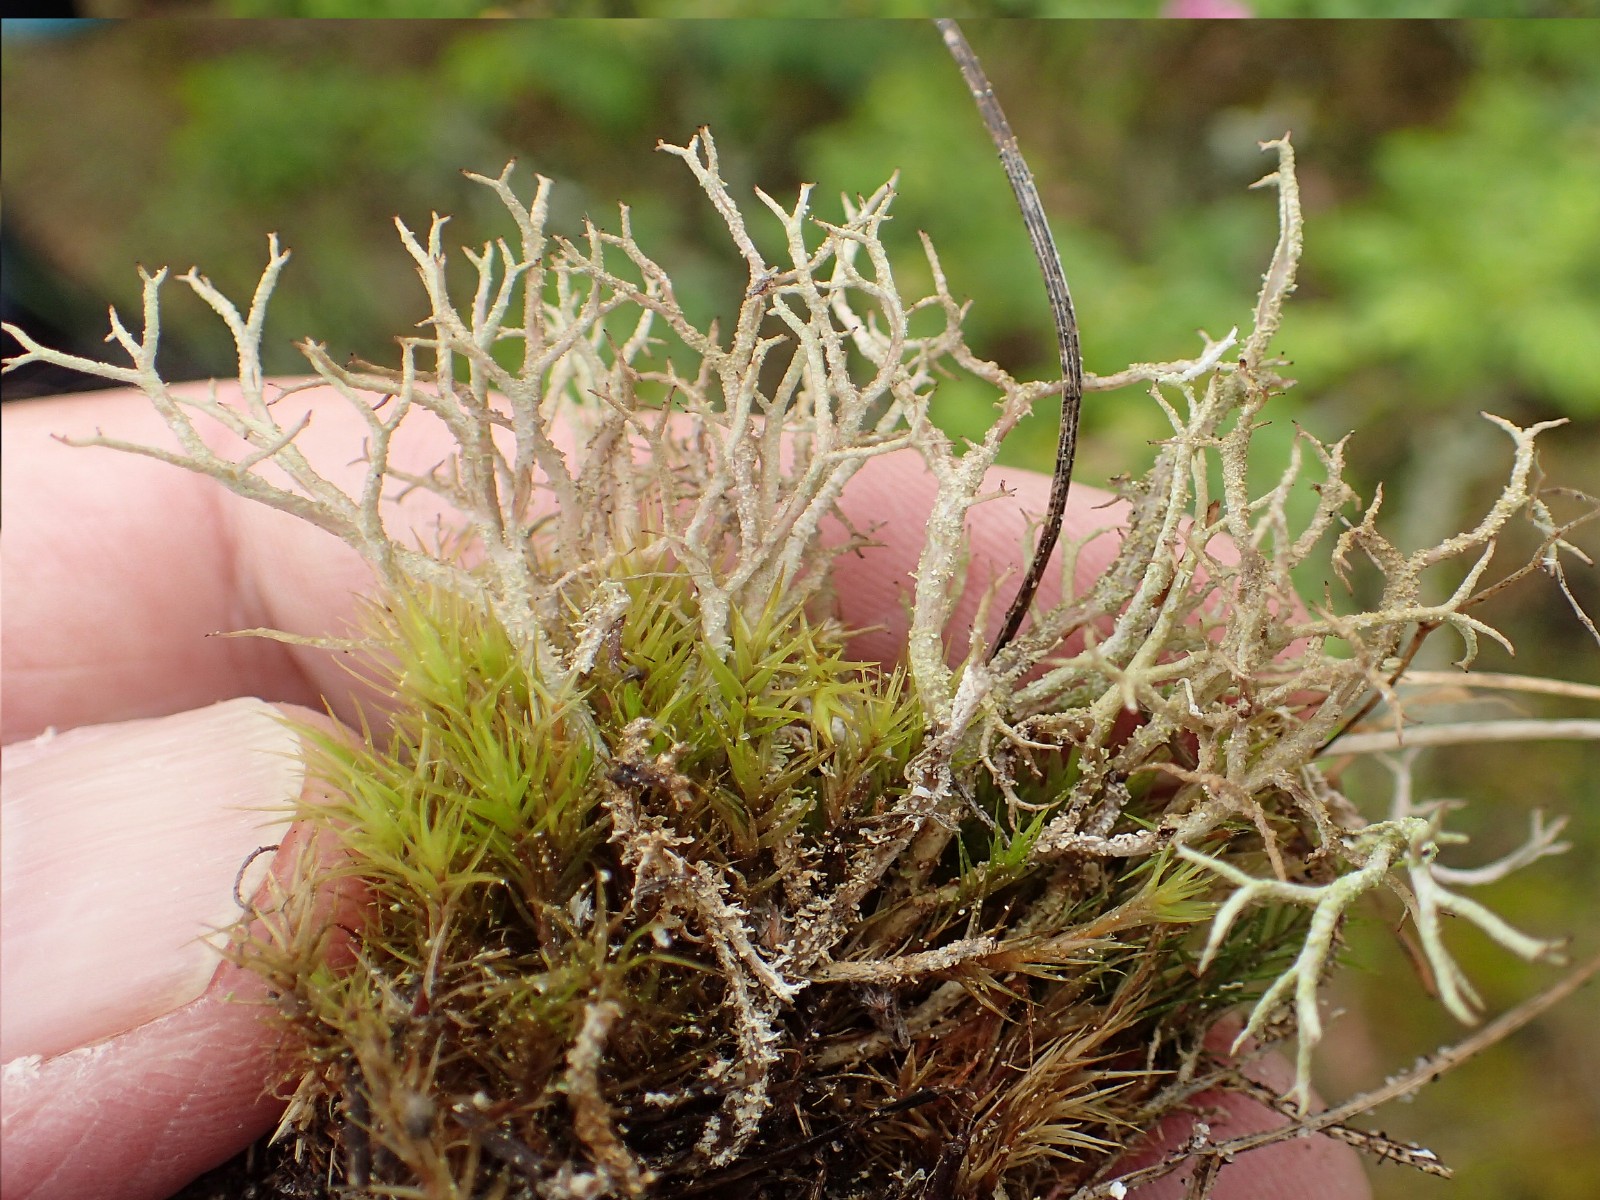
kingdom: Fungi
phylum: Ascomycota
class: Lecanoromycetes
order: Lecanorales
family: Cladoniaceae
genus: Cladonia
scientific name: Cladonia scabriuscula
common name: ru bægerlav
